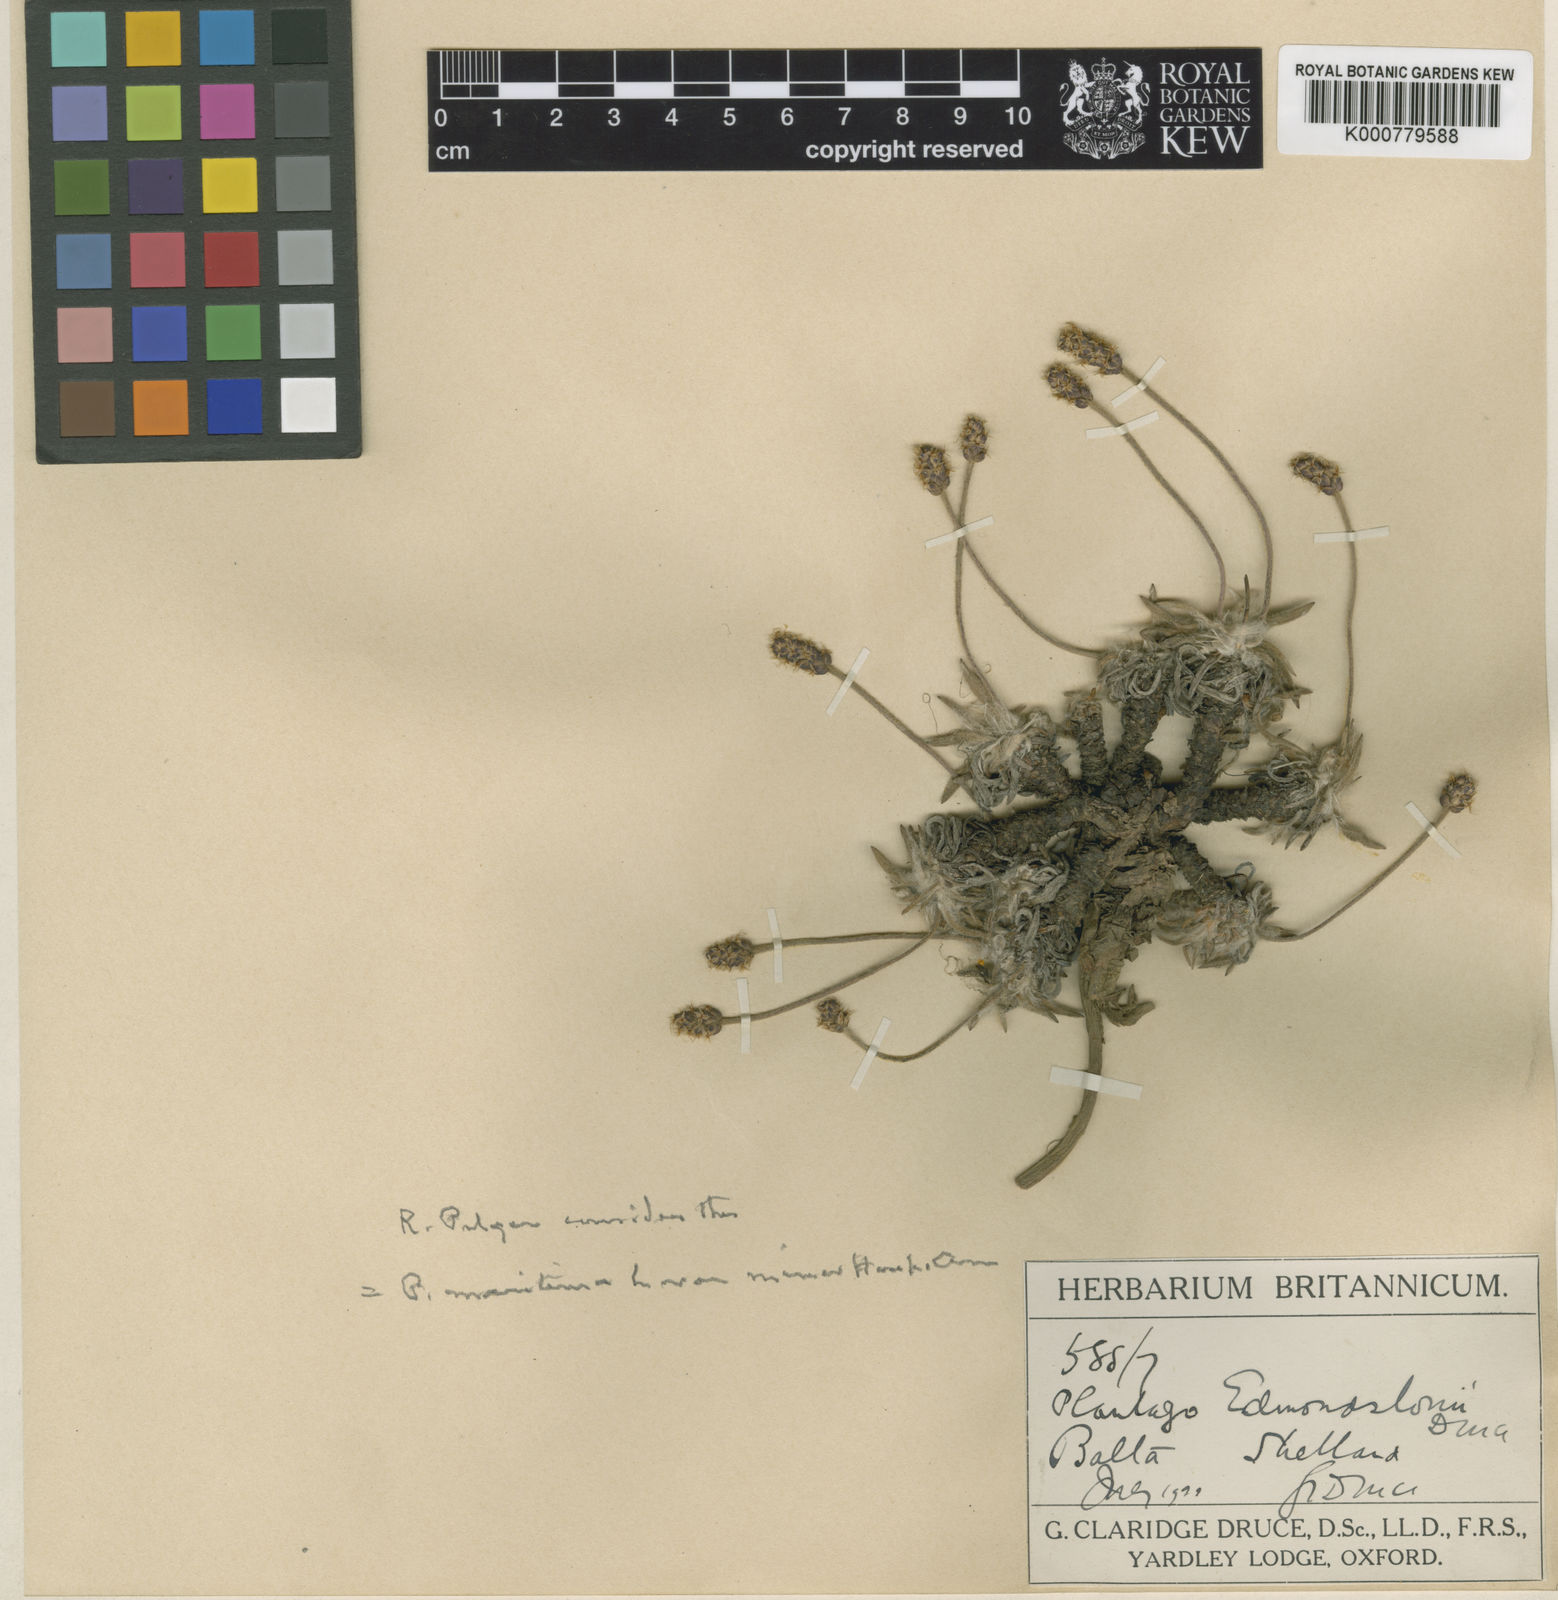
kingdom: Plantae
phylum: Tracheophyta
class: Magnoliopsida
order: Lamiales
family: Plantaginaceae
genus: Plantago
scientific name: Plantago maritima
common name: Sea plantain
